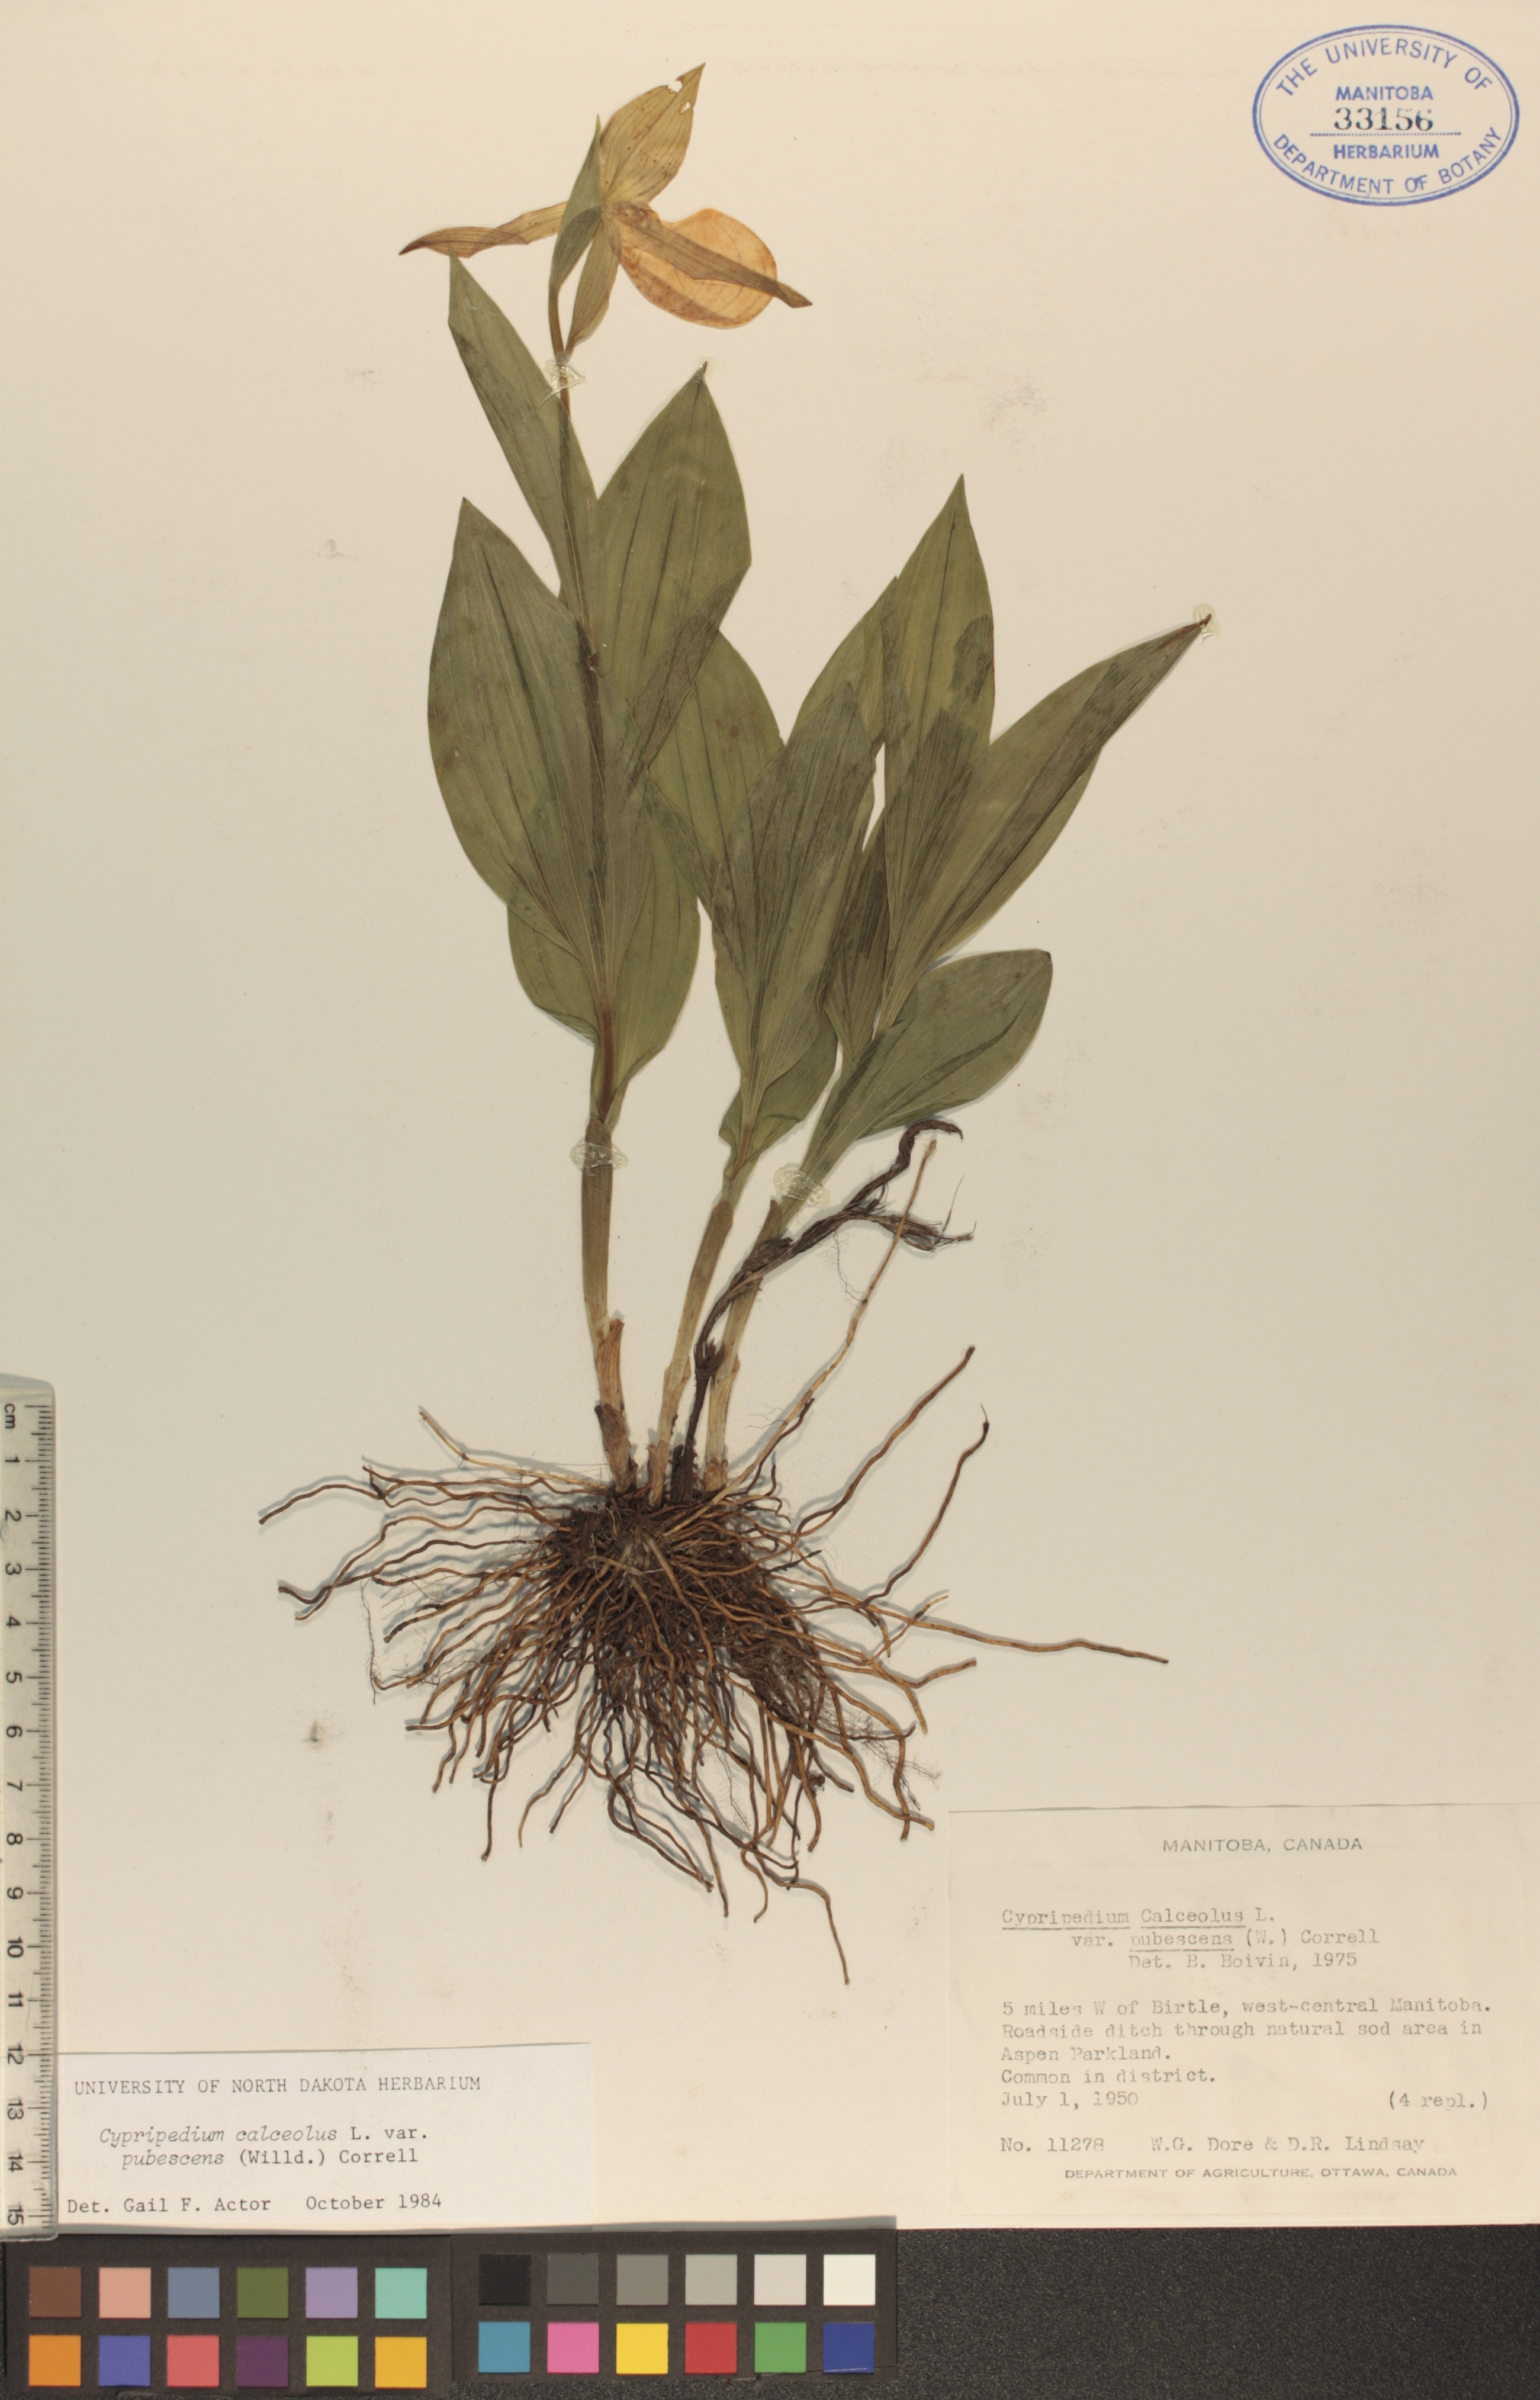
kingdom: Plantae
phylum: Tracheophyta
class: Liliopsida
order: Asparagales
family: Orchidaceae
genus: Cypripedium
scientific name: Cypripedium parviflorum
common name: American yellow lady's-slipper
